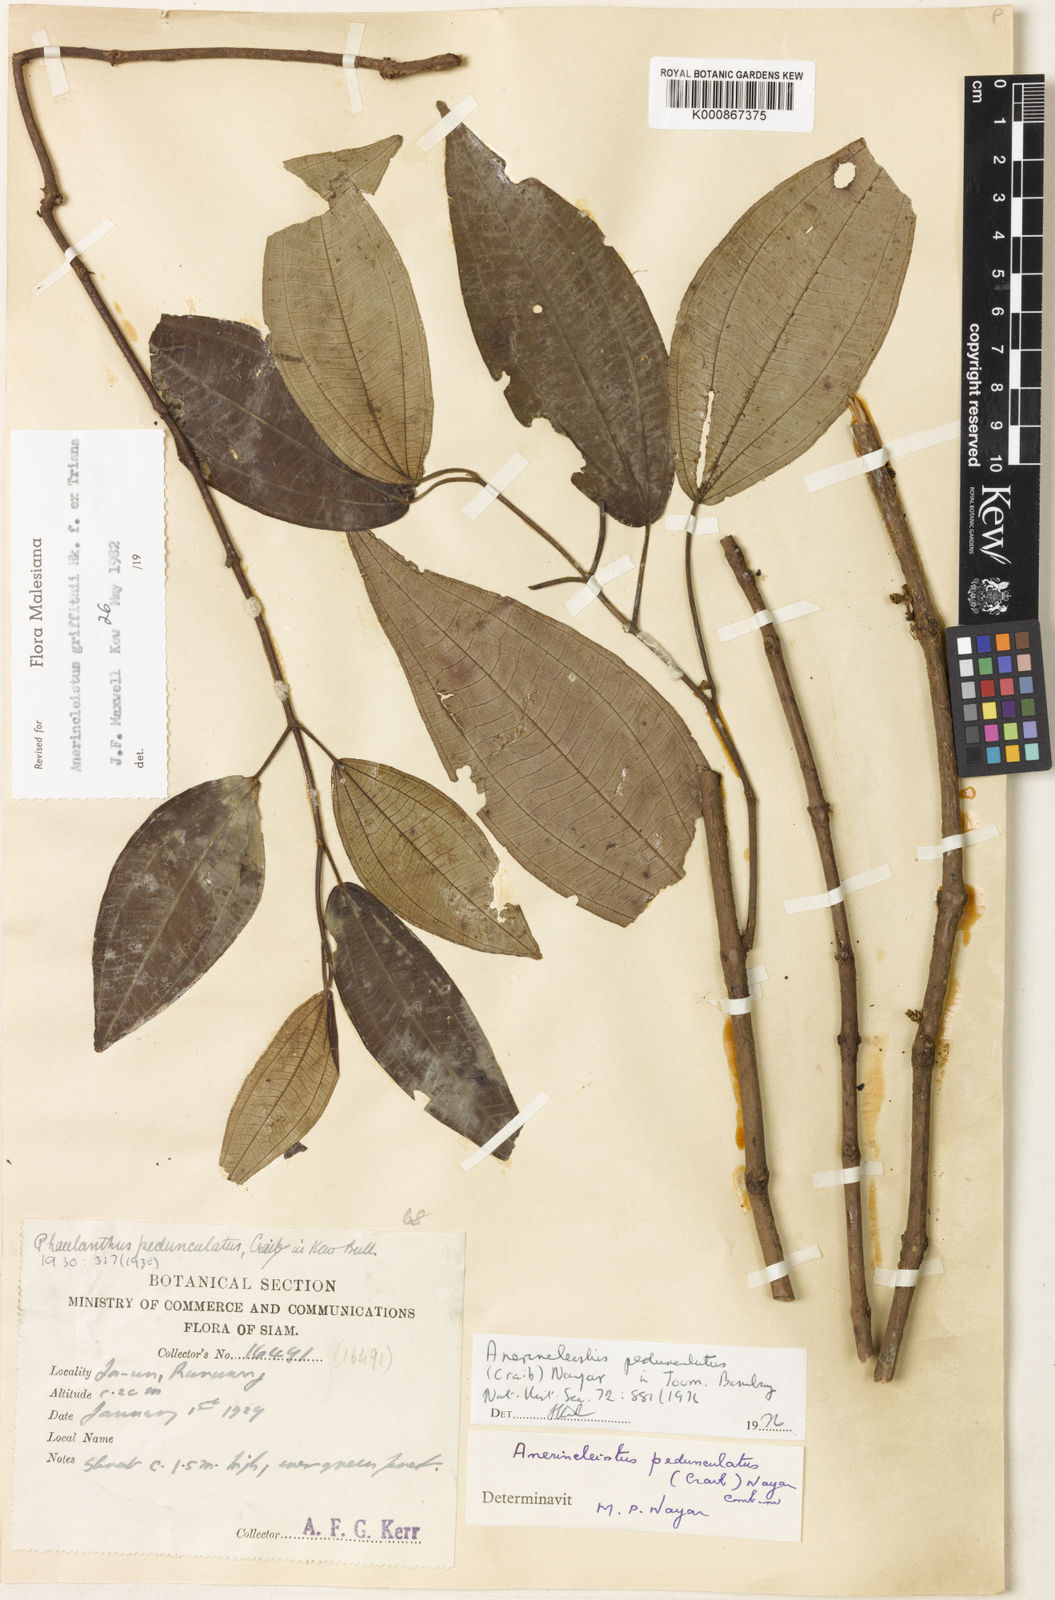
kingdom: Plantae
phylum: Tracheophyta
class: Magnoliopsida
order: Myrtales
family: Melastomataceae
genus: Anerincleistus
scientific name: Anerincleistus pedunculatus
